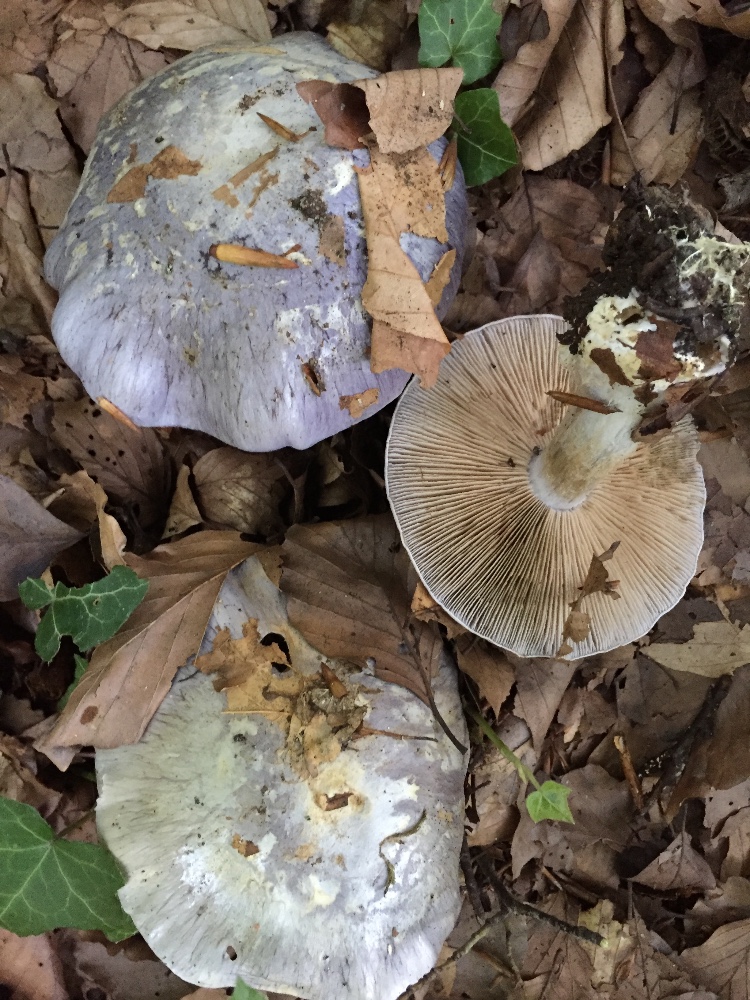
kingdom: Fungi
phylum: Basidiomycota
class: Agaricomycetes
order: Agaricales
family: Cortinariaceae
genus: Cortinarius
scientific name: Cortinarius caerulescens
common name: blåkødet slørhat
